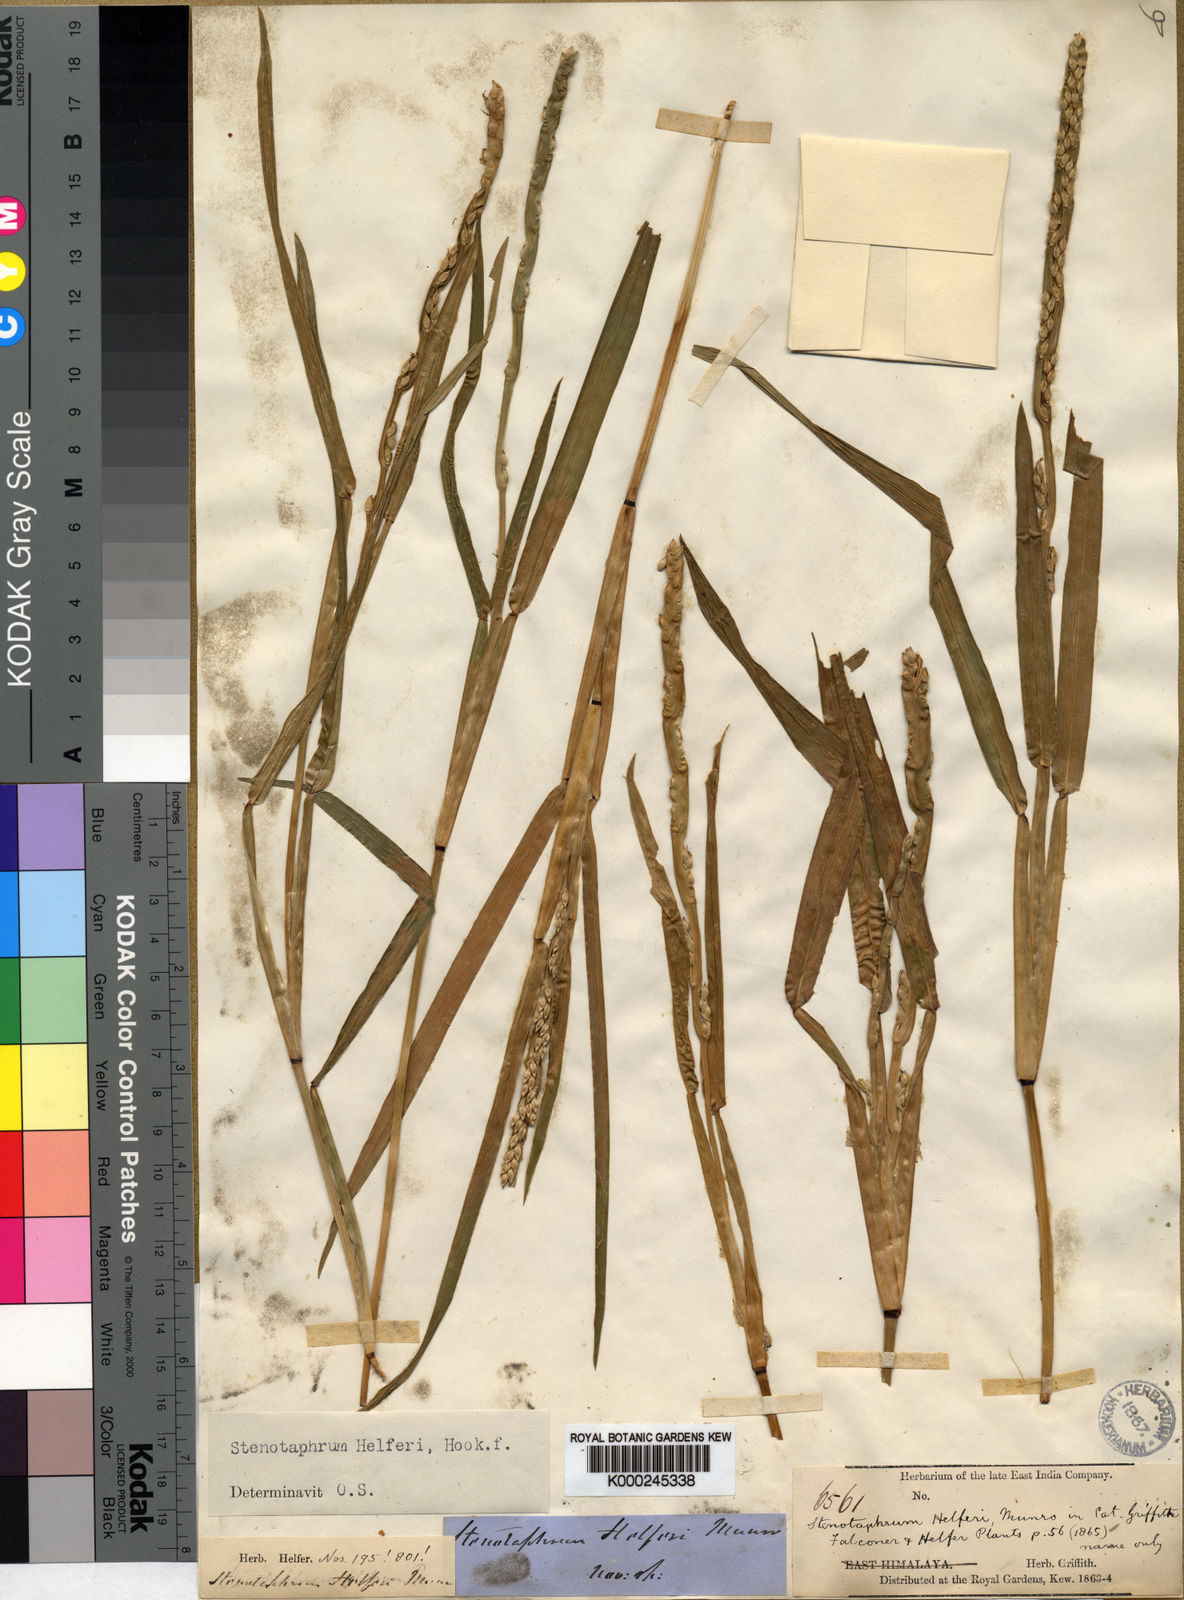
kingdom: Plantae
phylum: Tracheophyta
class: Liliopsida
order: Poales
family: Poaceae
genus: Stenotaphrum
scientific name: Stenotaphrum helferi
